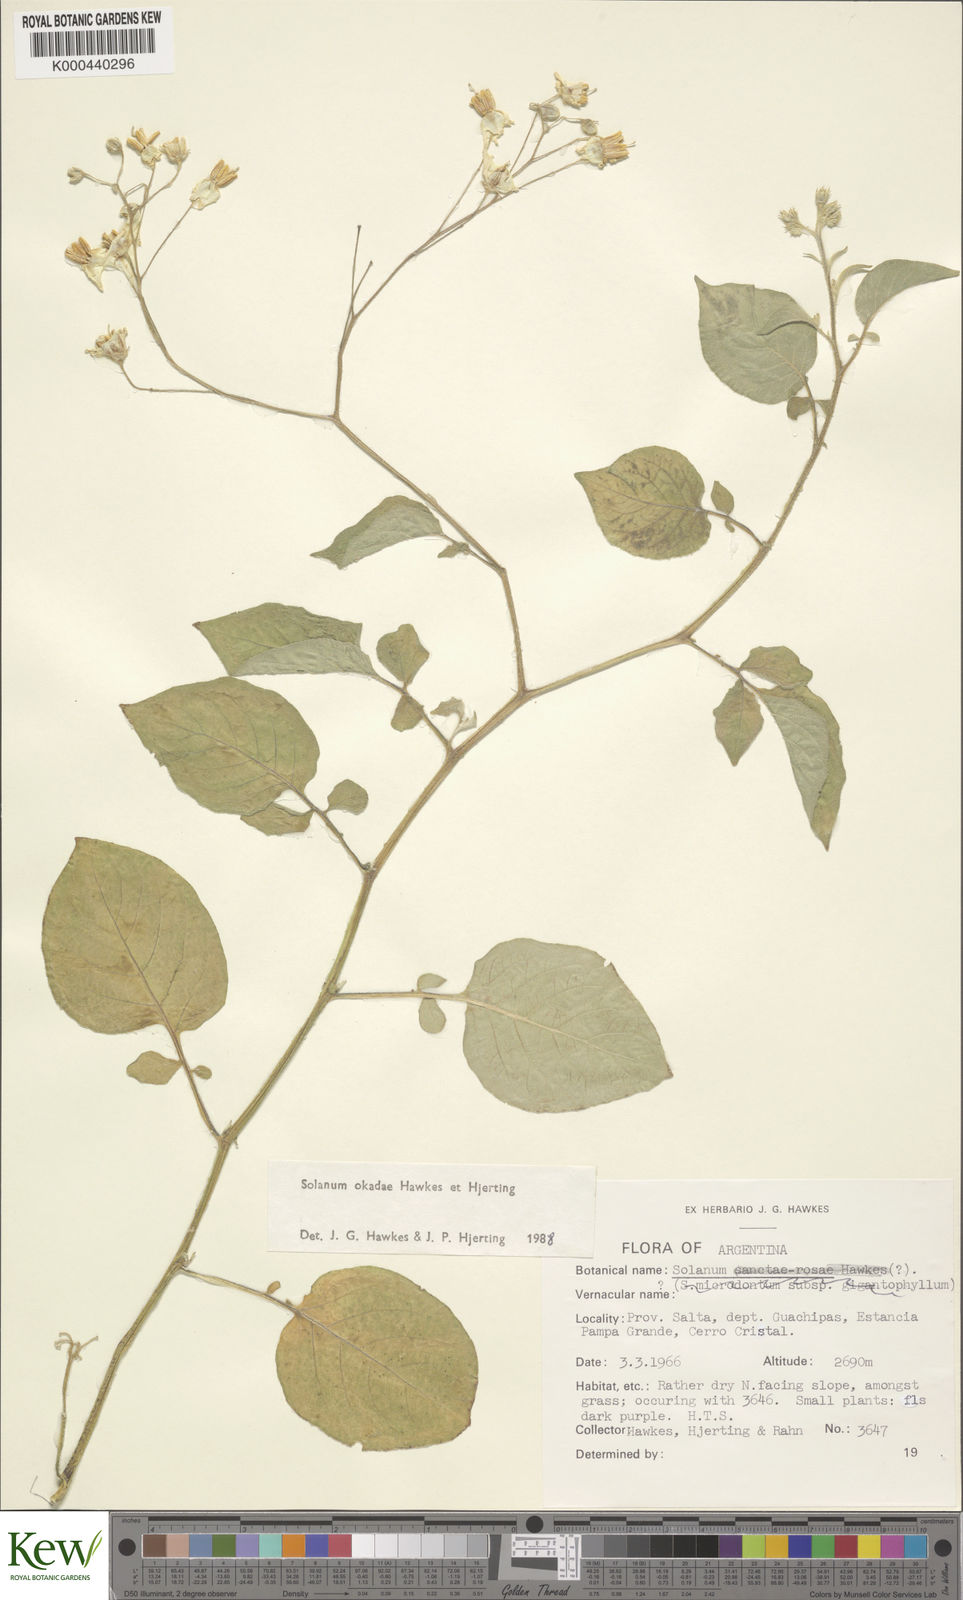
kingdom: Plantae
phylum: Tracheophyta
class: Magnoliopsida
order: Solanales
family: Solanaceae
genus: Solanum
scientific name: Solanum okadae
